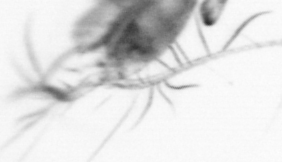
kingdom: Animalia
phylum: Arthropoda
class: Copepoda
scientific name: Copepoda
